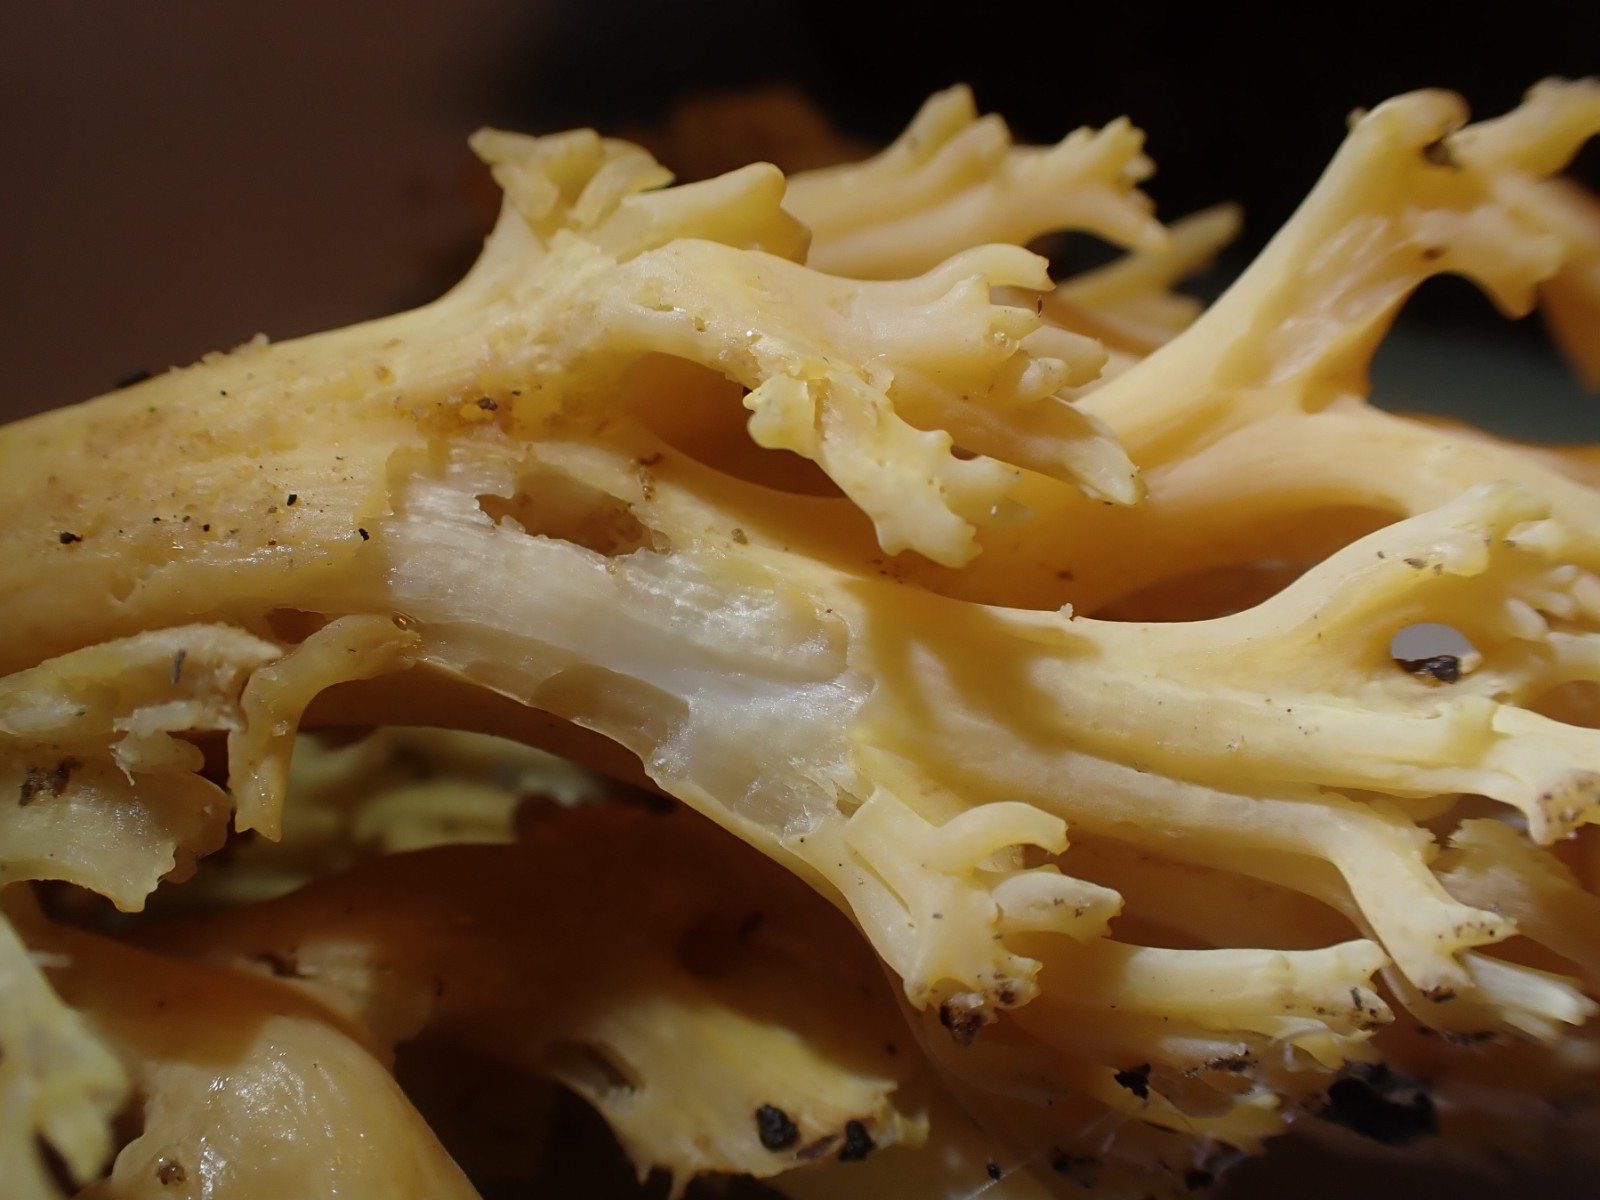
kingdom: Fungi
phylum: Basidiomycota
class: Agaricomycetes
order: Gomphales
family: Gomphaceae
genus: Ramaria
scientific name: Ramaria
